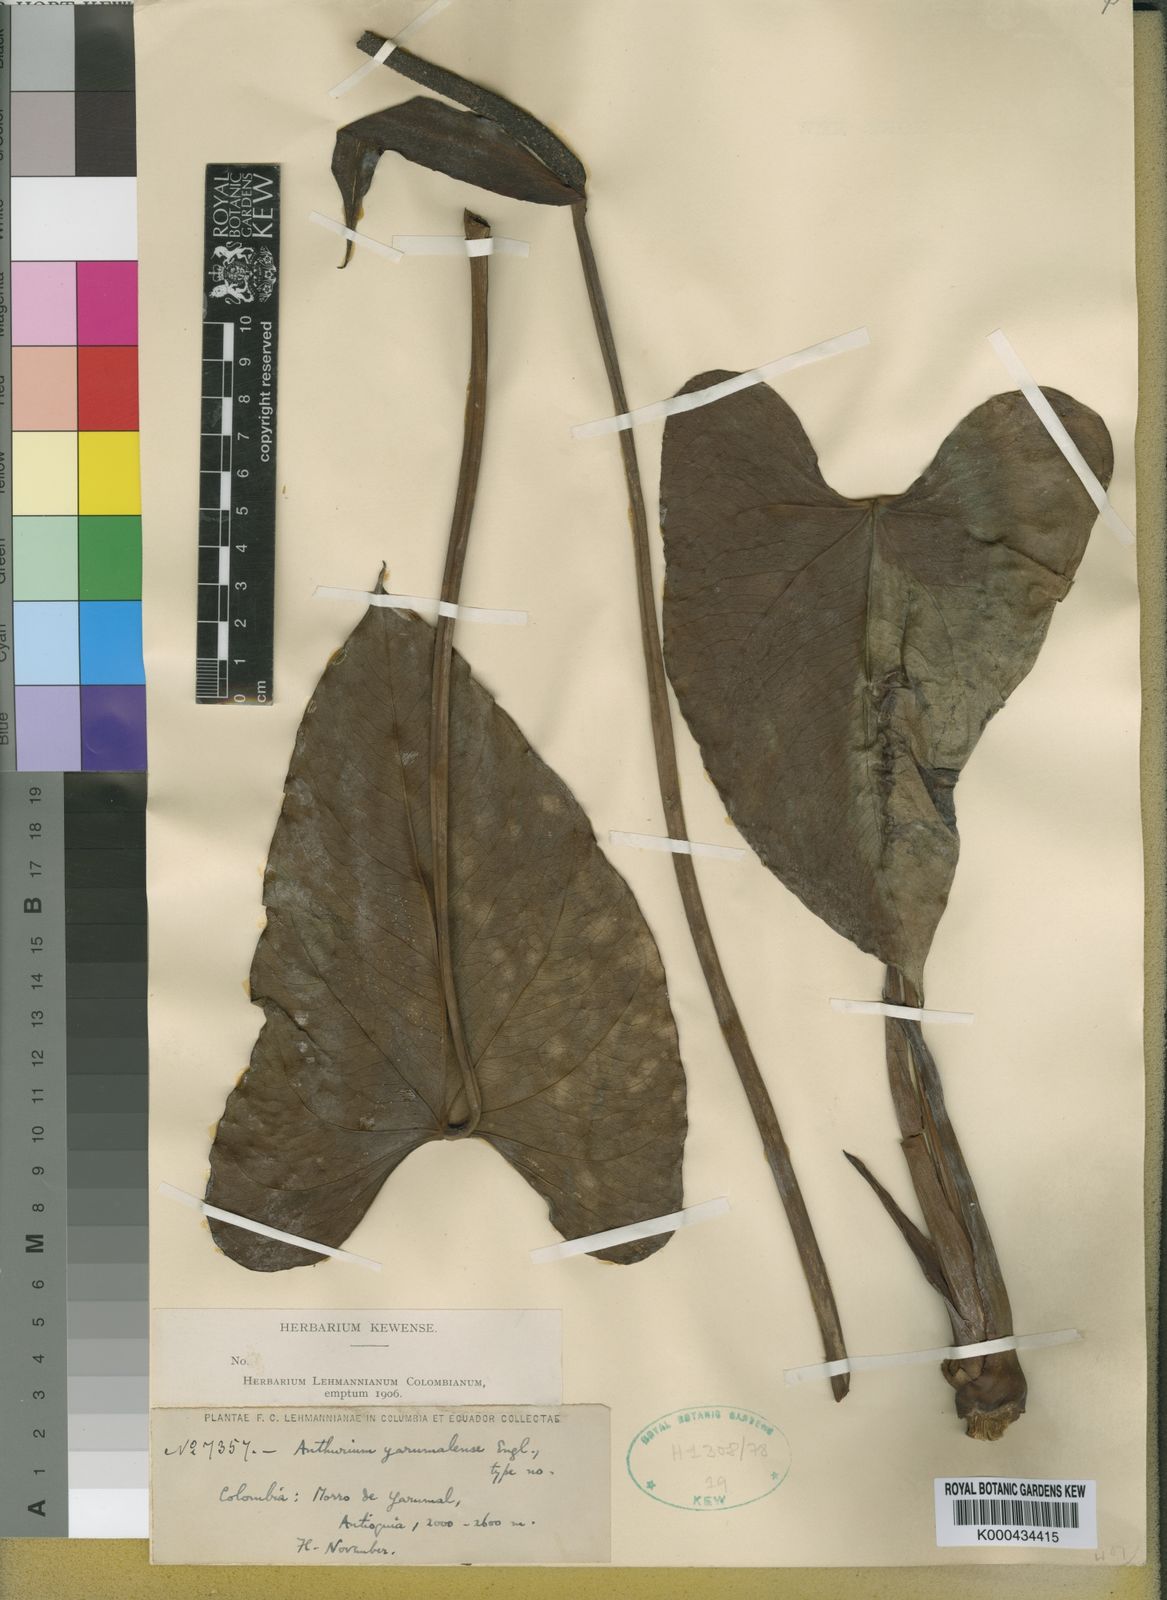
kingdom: Plantae
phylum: Tracheophyta
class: Liliopsida
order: Alismatales
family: Araceae
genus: Anthurium
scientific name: Anthurium yarumalense
